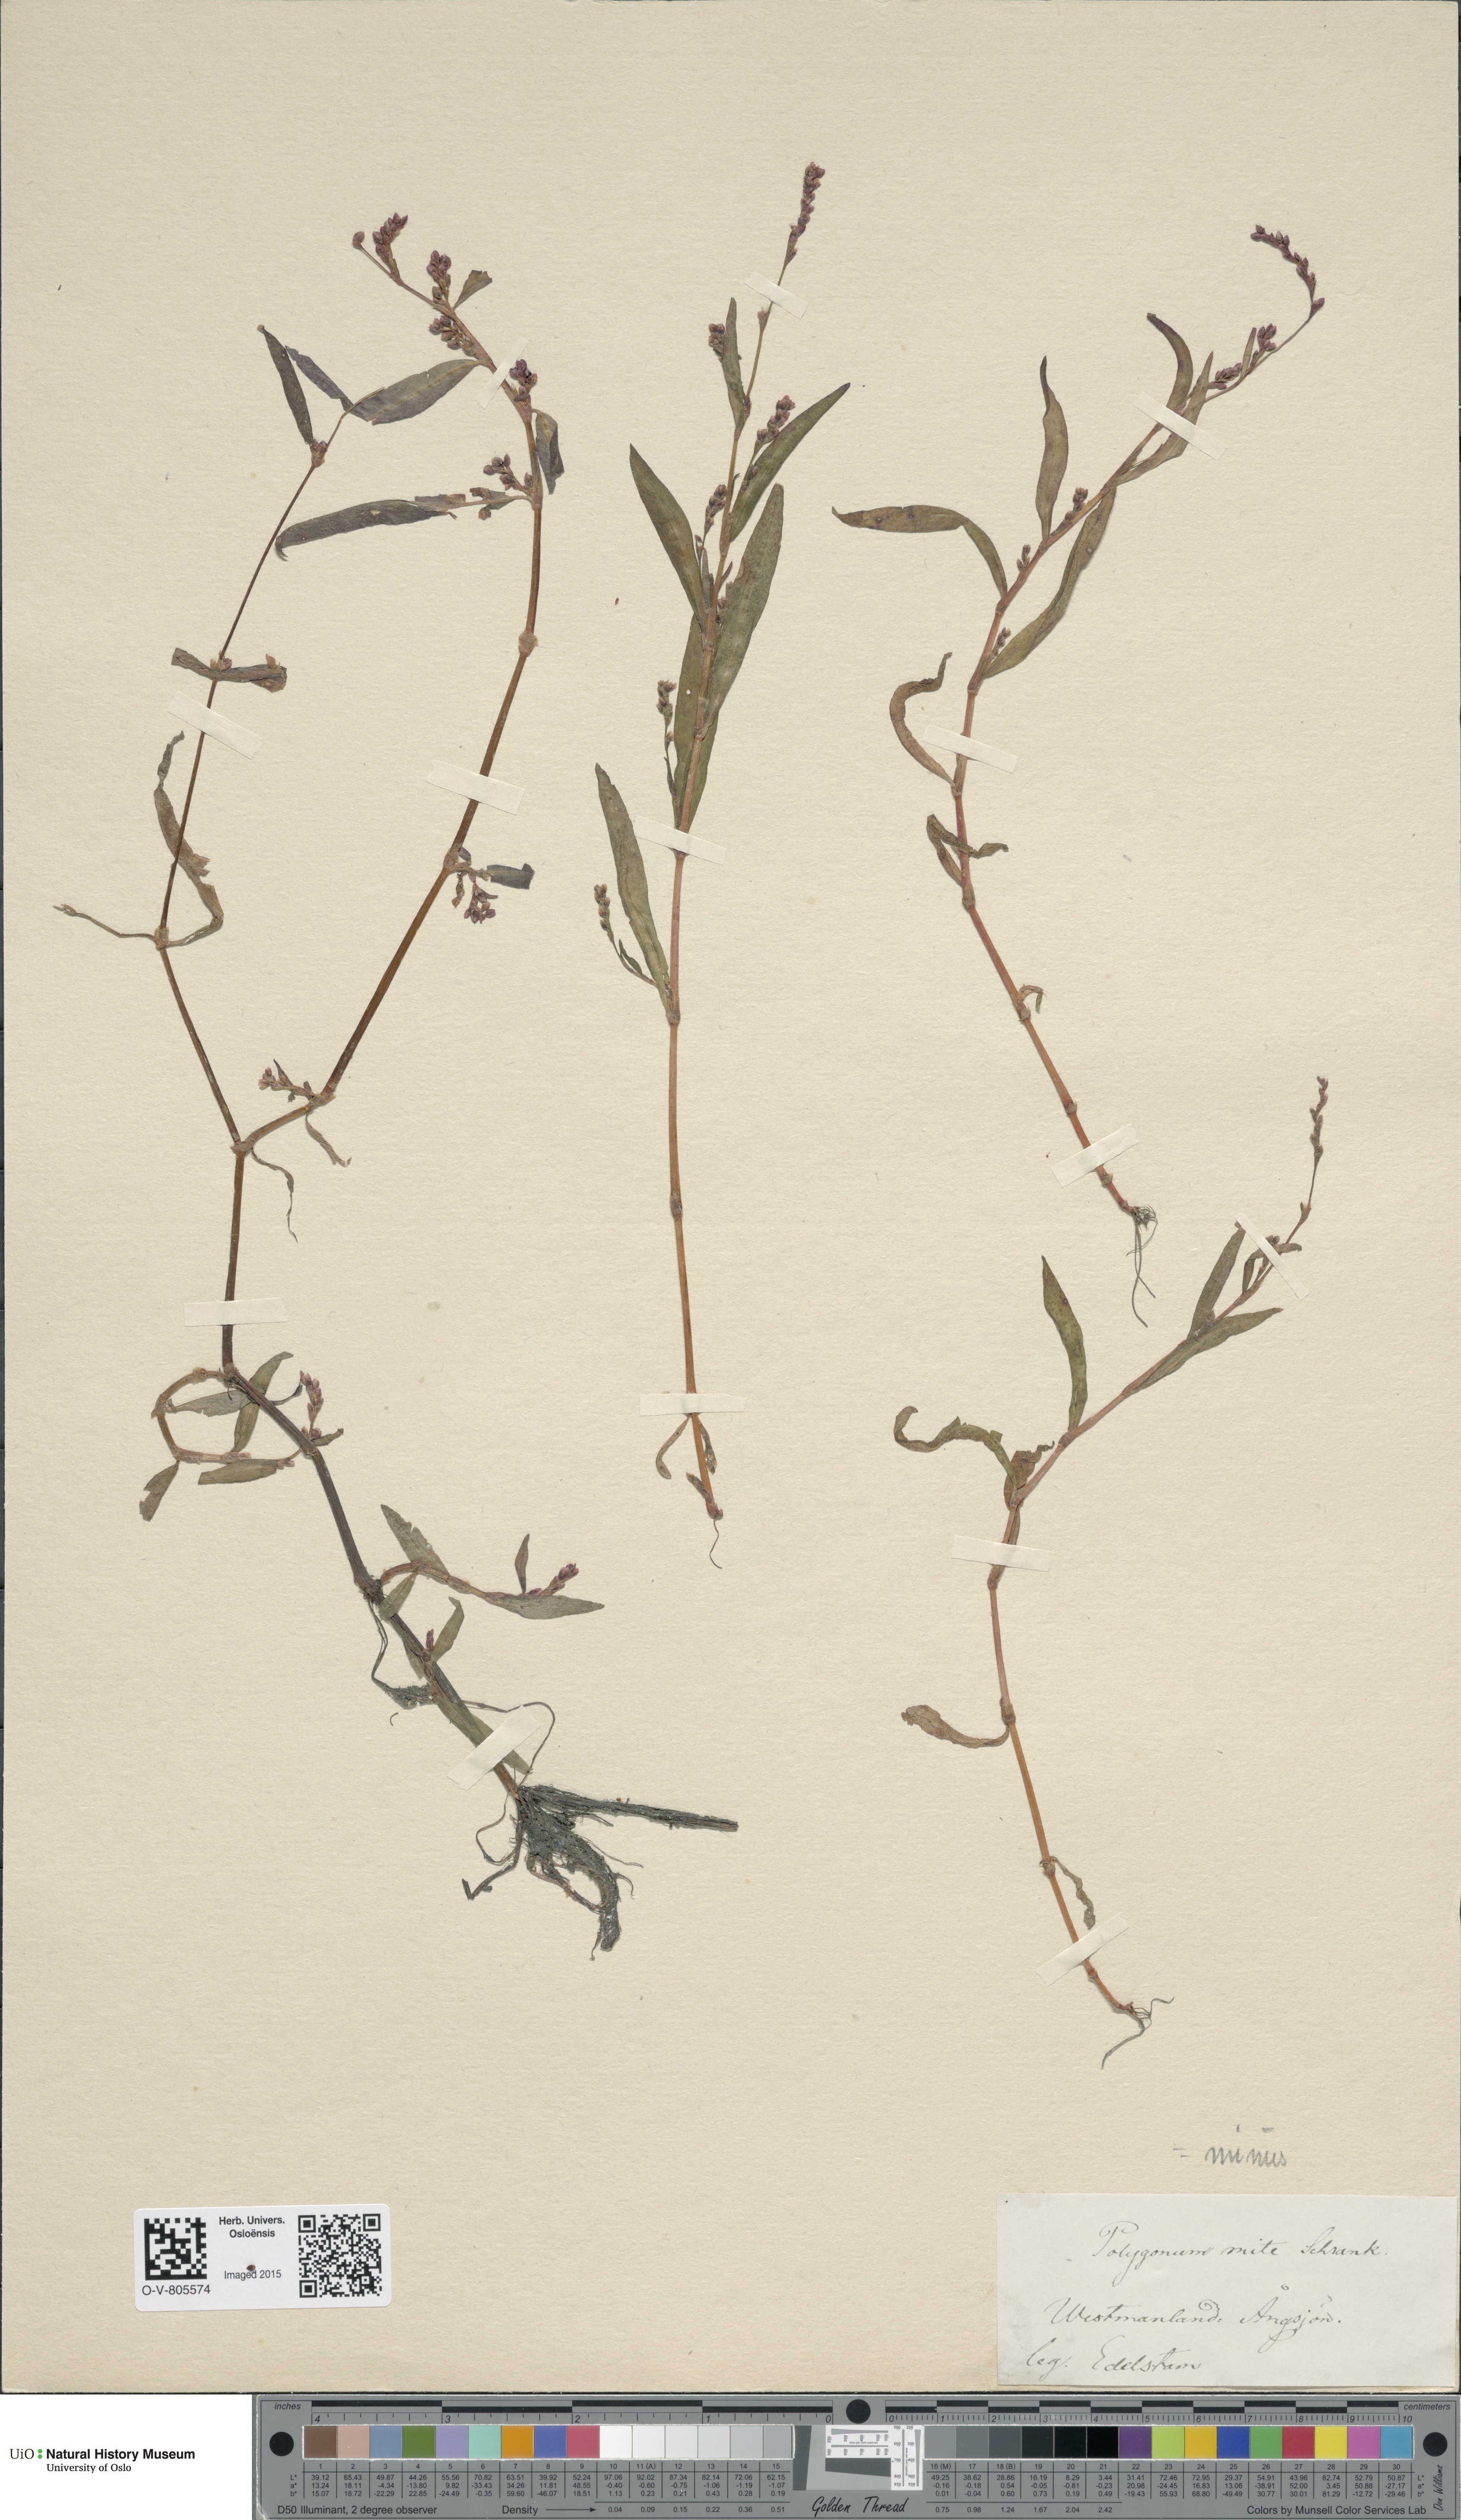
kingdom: Plantae
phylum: Tracheophyta
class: Magnoliopsida
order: Caryophyllales
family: Polygonaceae
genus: Persicaria
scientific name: Persicaria minor
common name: Small water-pepper
